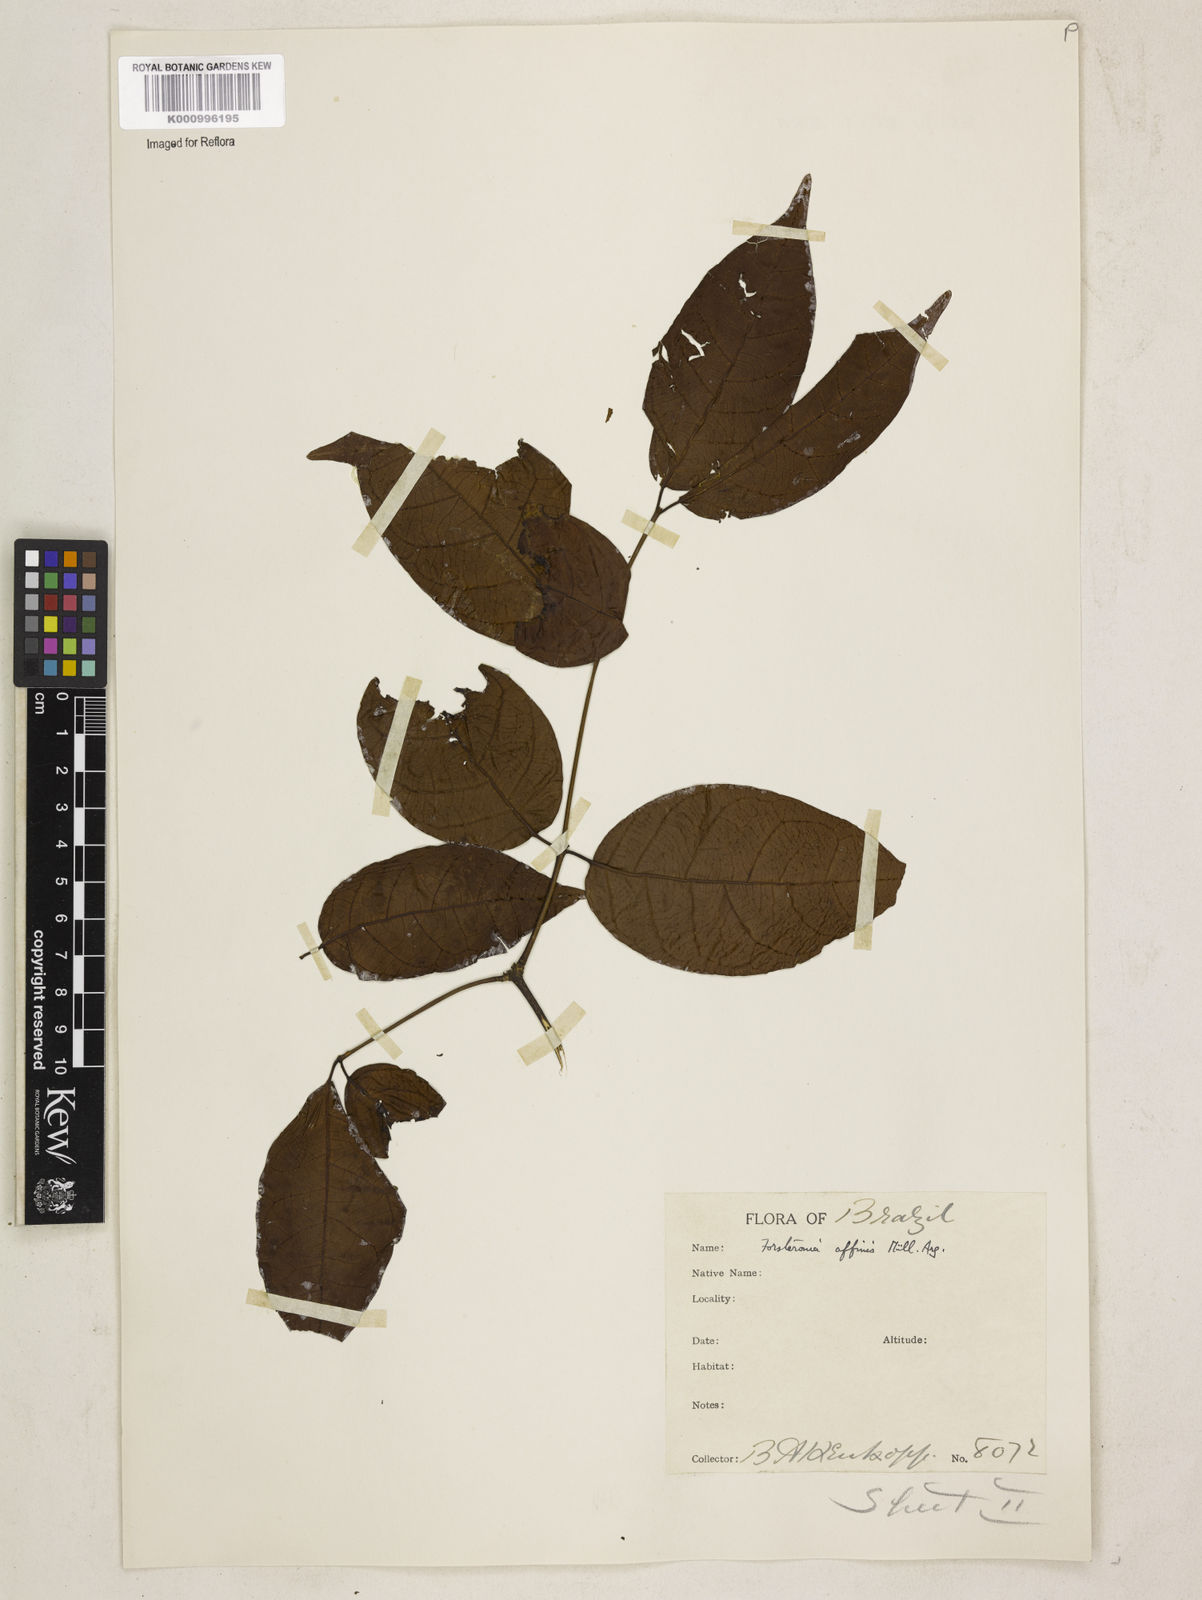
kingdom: Plantae
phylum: Tracheophyta
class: Magnoliopsida
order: Gentianales
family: Apocynaceae
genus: Forsteronia
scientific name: Forsteronia
